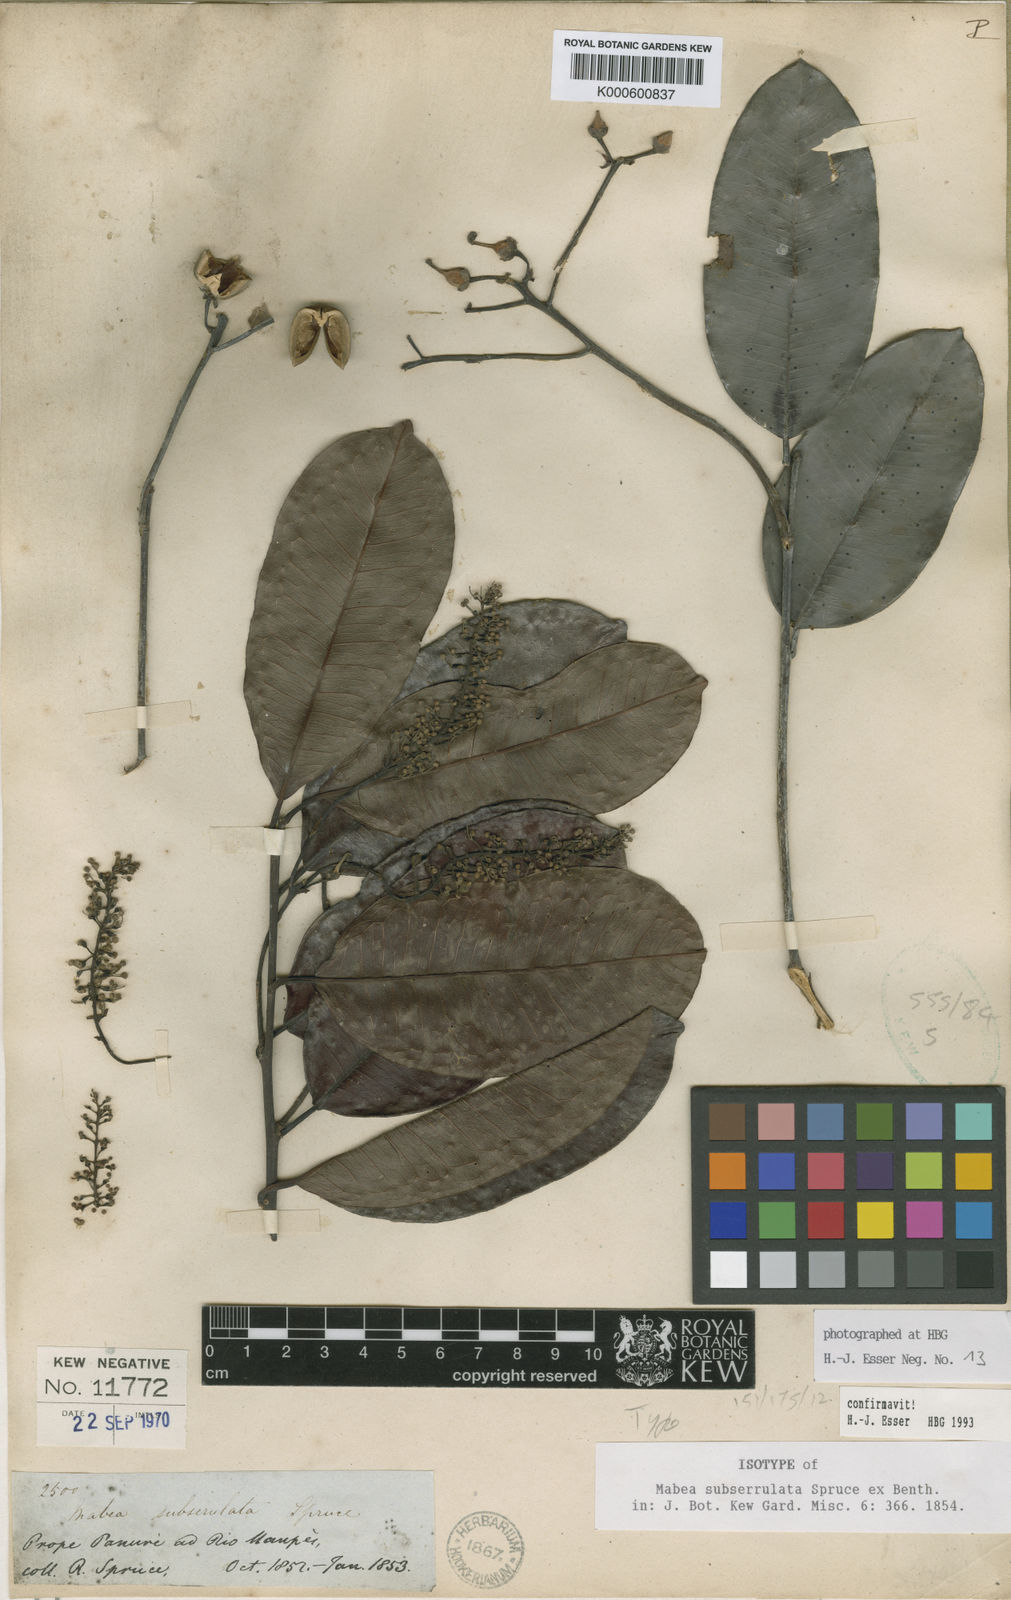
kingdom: Plantae
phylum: Tracheophyta
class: Magnoliopsida
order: Malpighiales
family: Euphorbiaceae
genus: Mabea
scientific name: Mabea subserrulata
